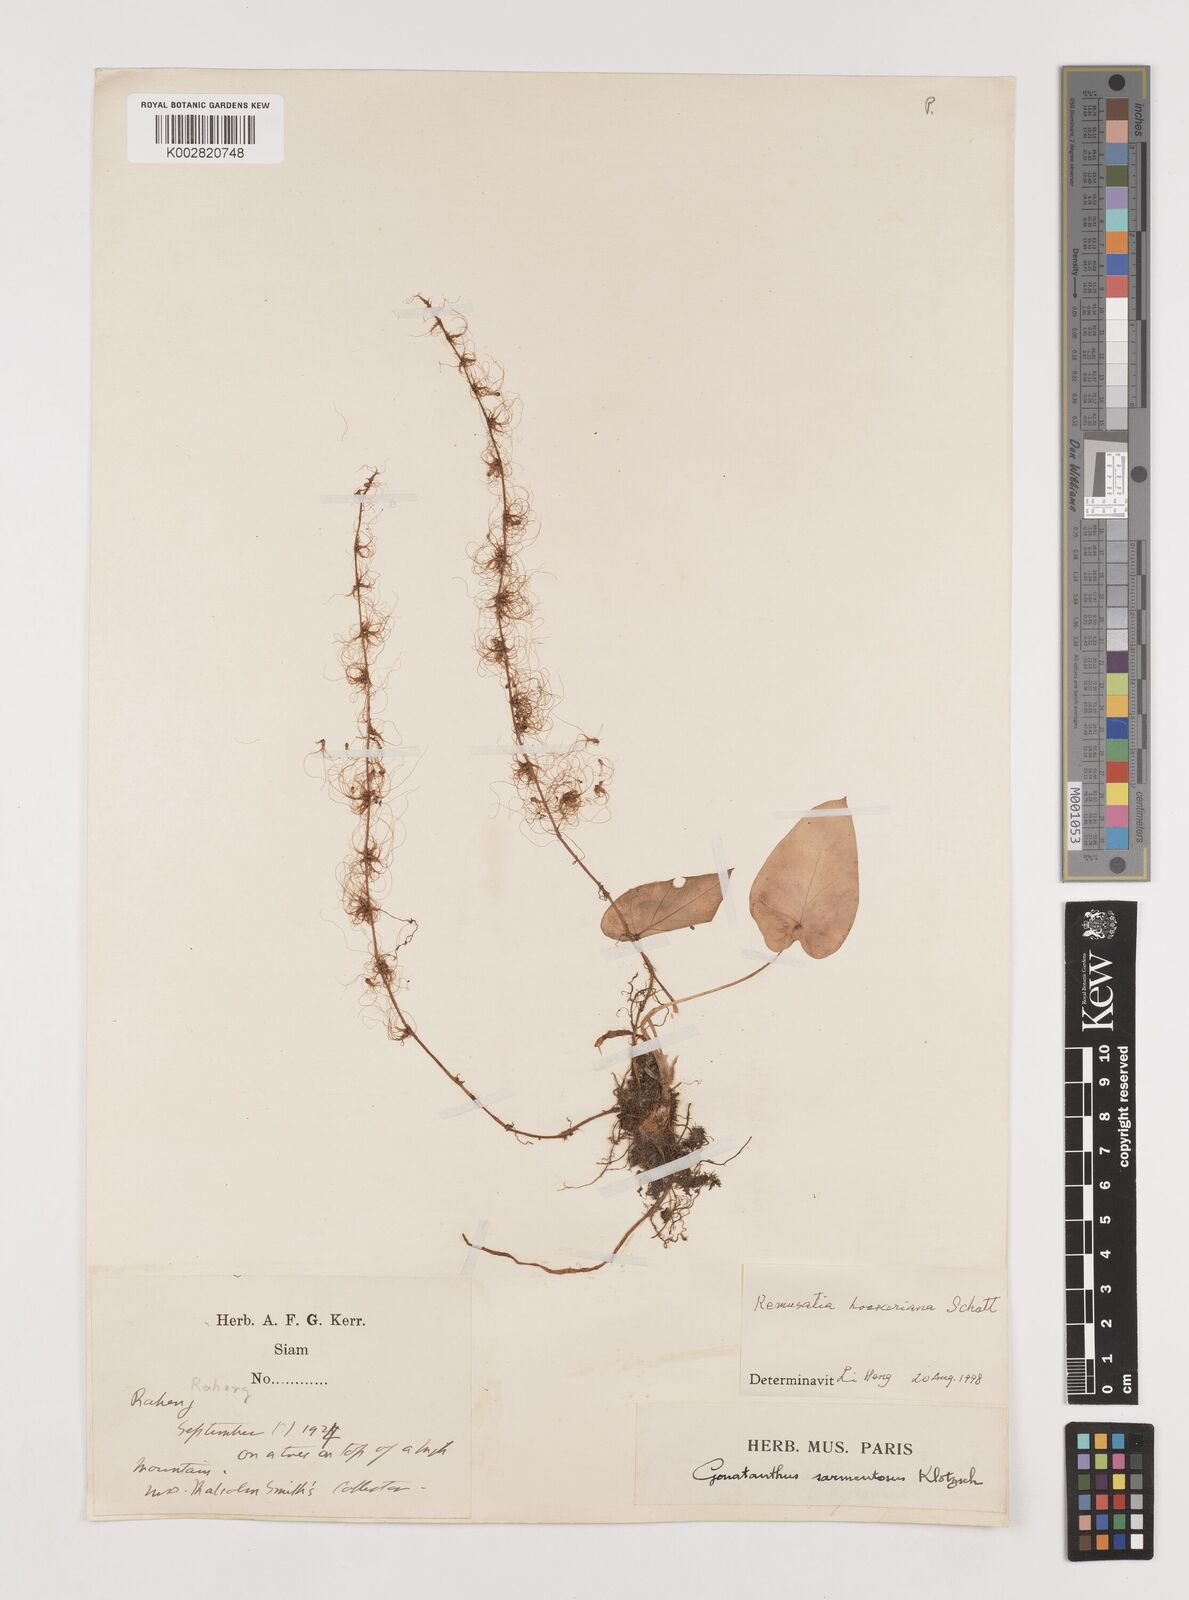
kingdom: Plantae
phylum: Tracheophyta
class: Liliopsida
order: Alismatales
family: Araceae
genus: Remusatia
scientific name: Remusatia hookeriana
